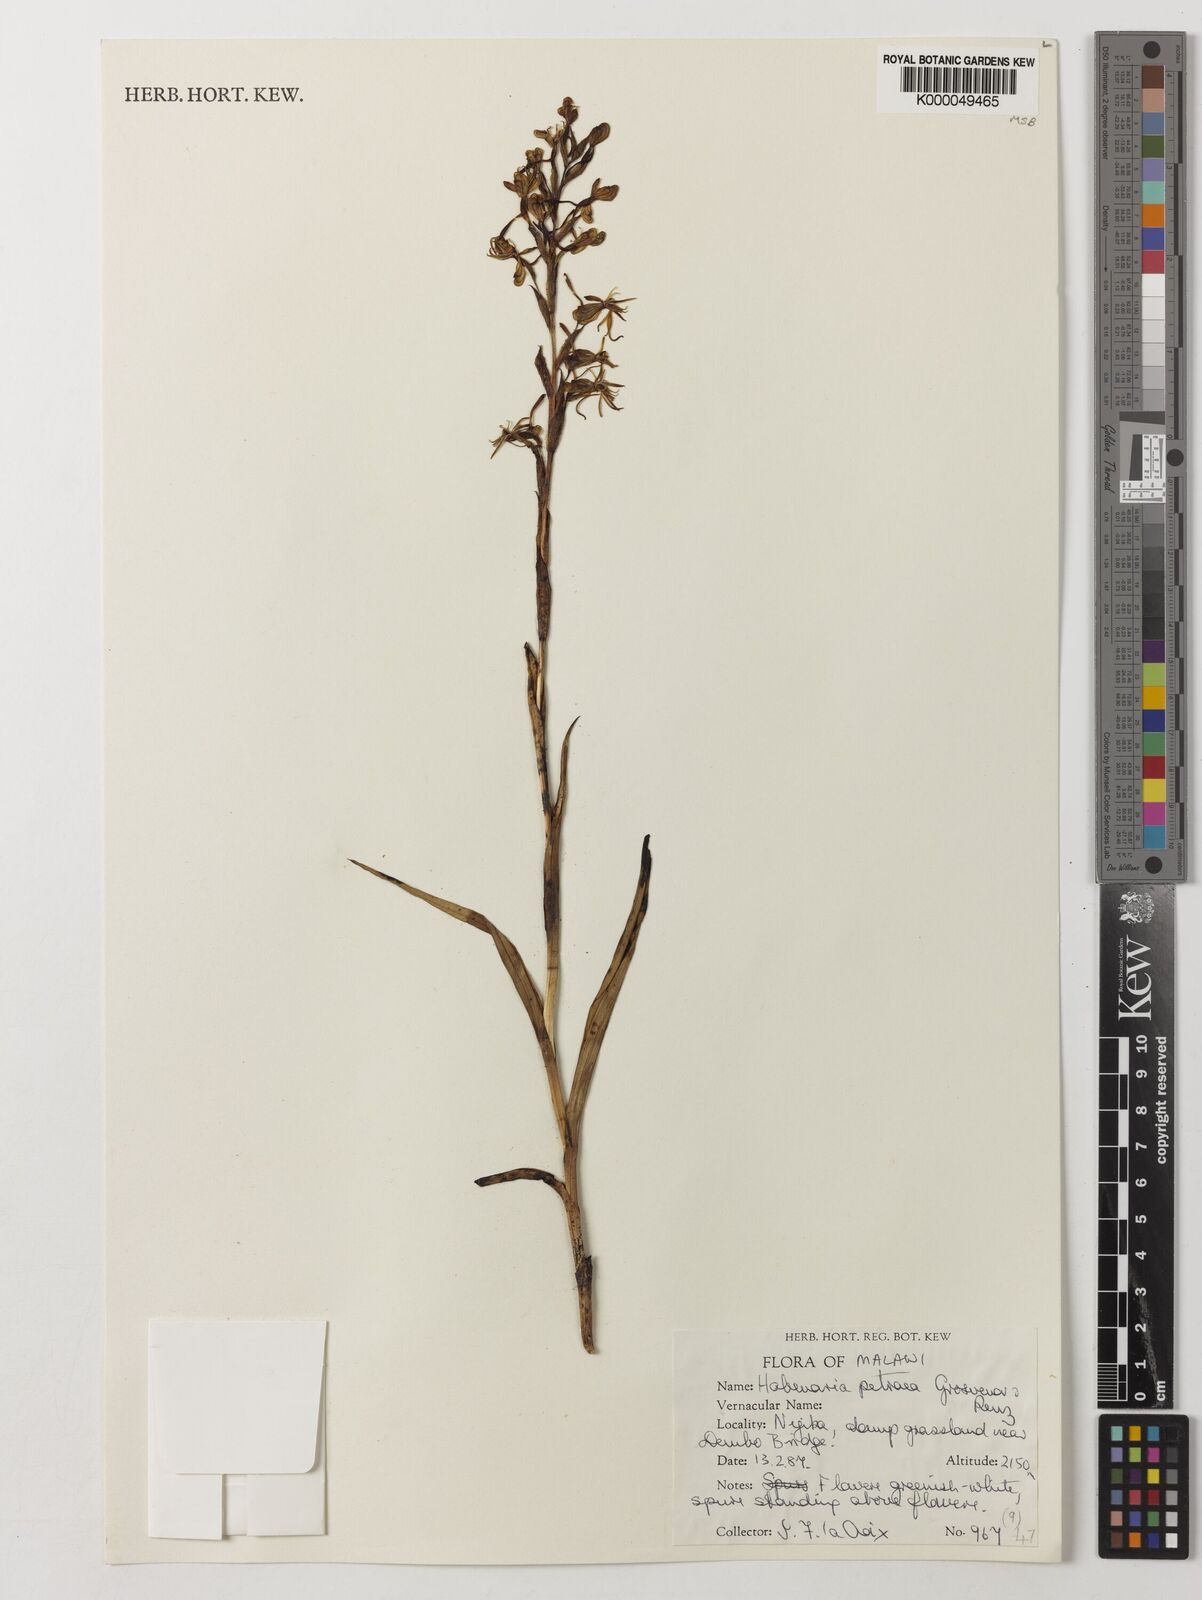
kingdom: Plantae
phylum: Tracheophyta
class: Liliopsida
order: Asparagales
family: Orchidaceae
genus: Habenaria
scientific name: Habenaria petraea
